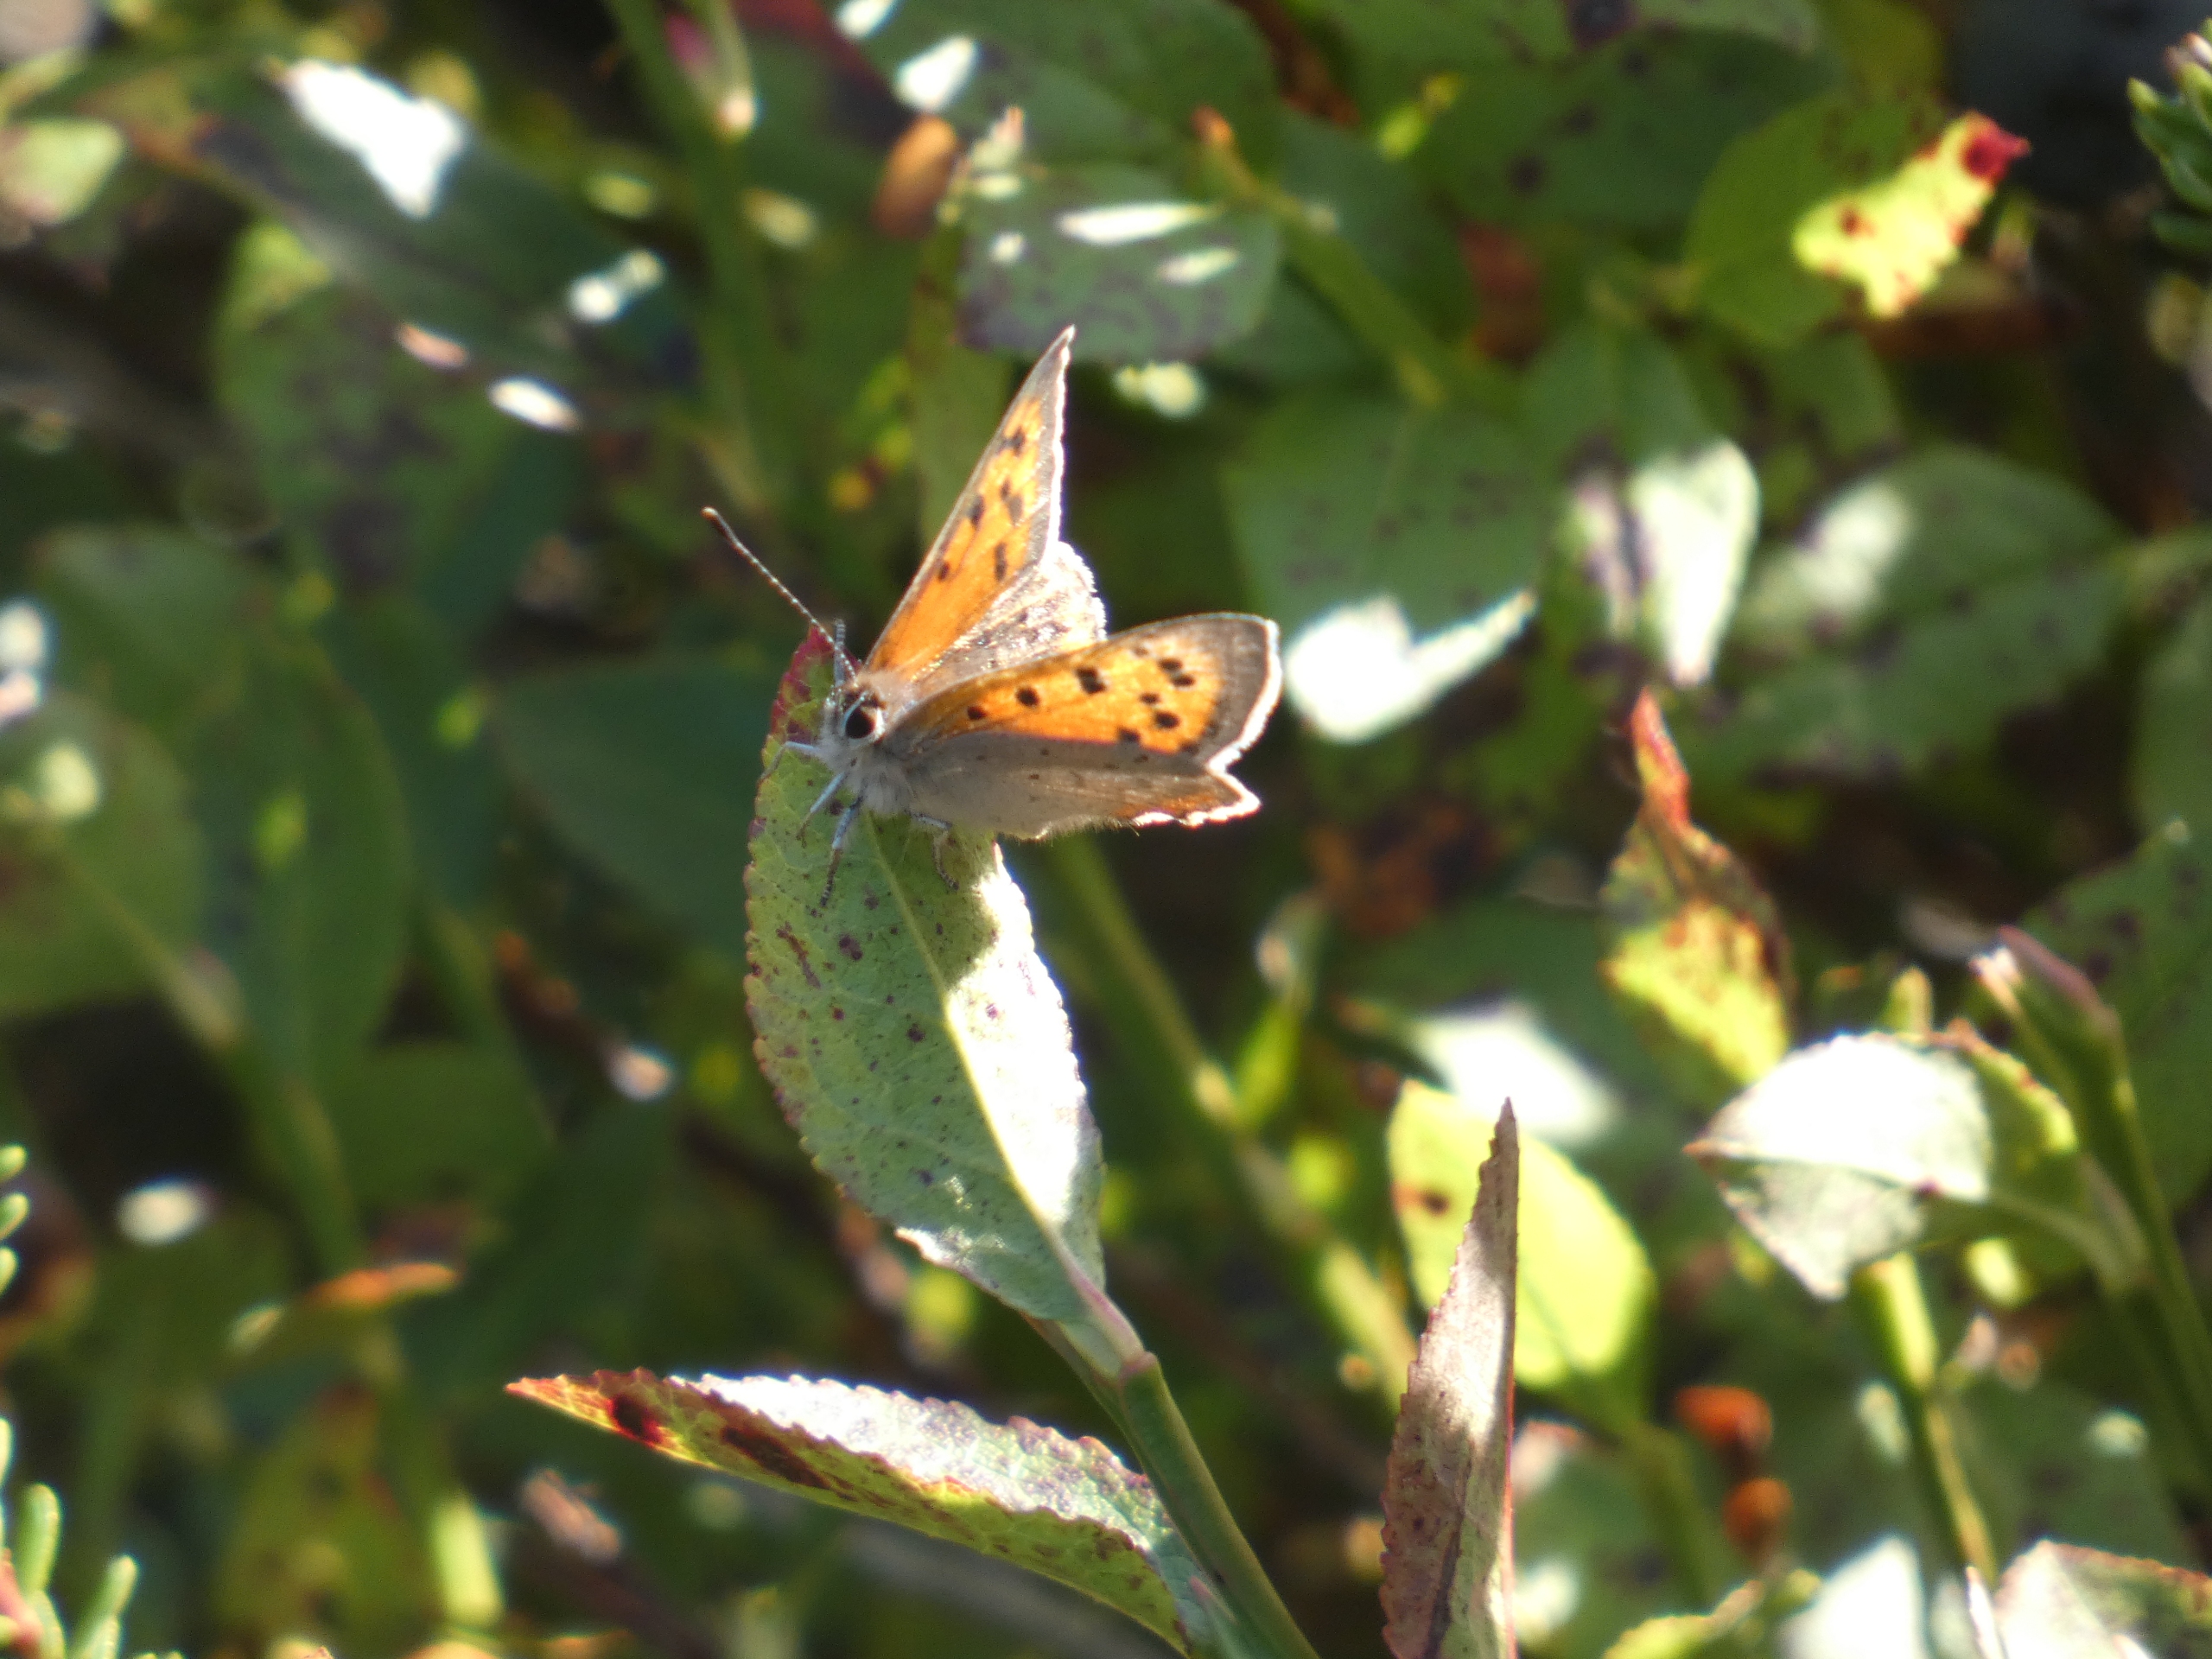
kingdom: Animalia
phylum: Arthropoda
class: Insecta
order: Lepidoptera
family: Lycaenidae
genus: Lycaena
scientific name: Lycaena phlaeas
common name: Lille ildfugl
